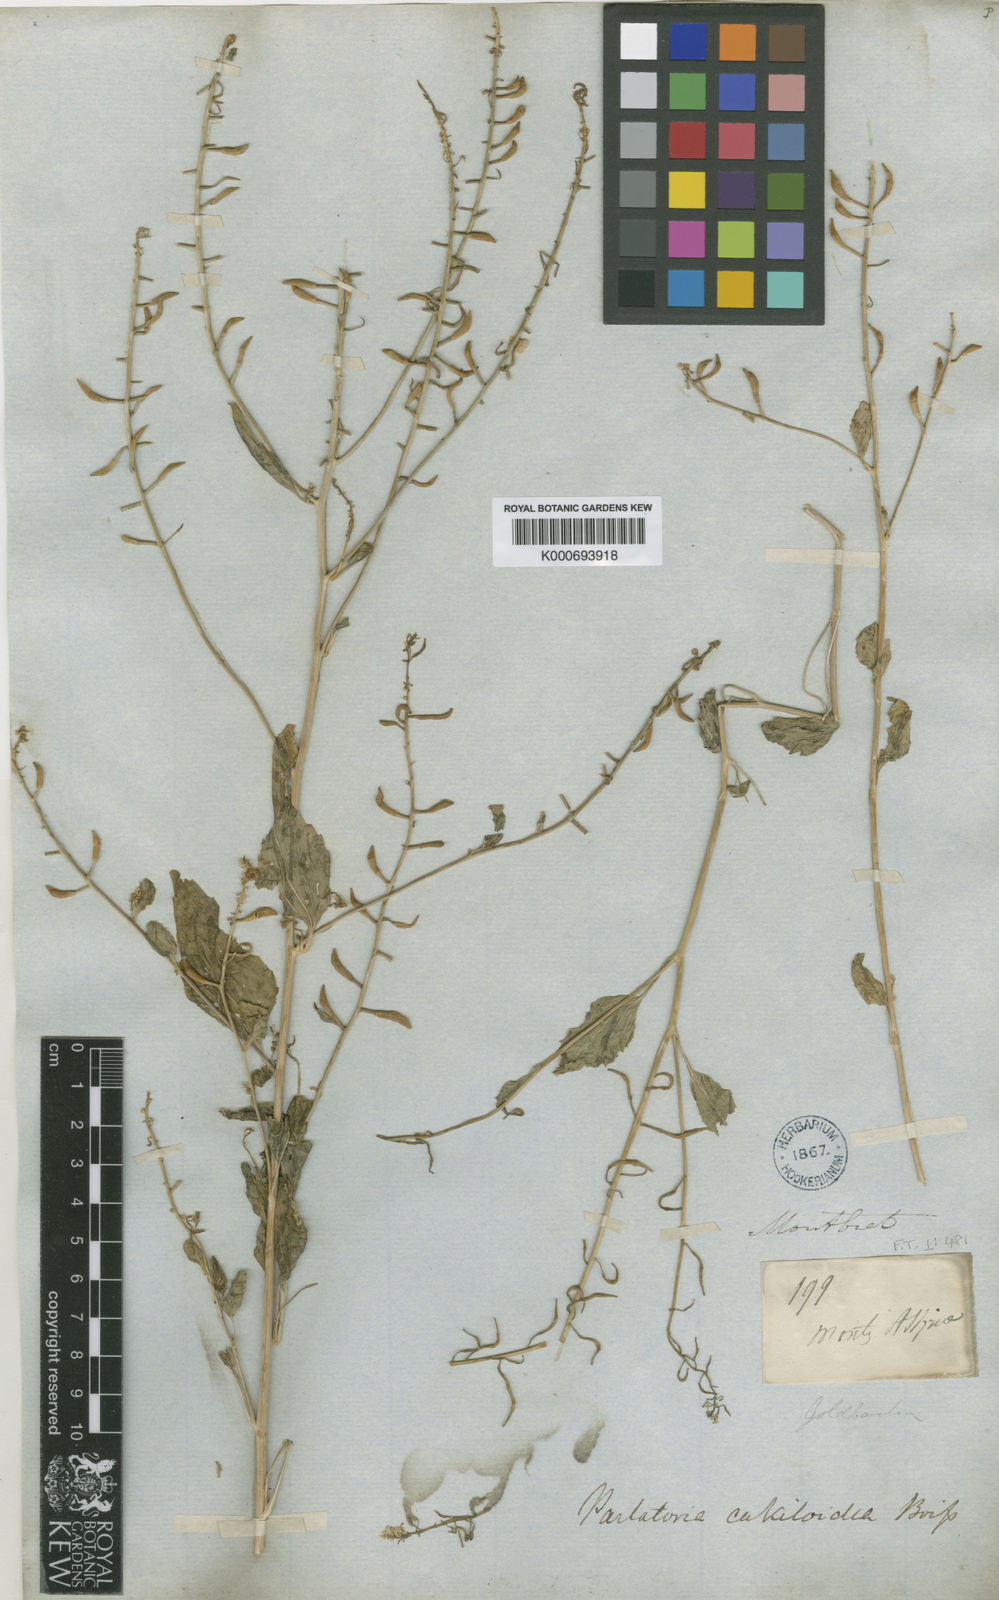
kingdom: Plantae
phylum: Tracheophyta
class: Magnoliopsida
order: Brassicales
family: Brassicaceae
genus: Parlatoria
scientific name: Parlatoria cakiloidea
